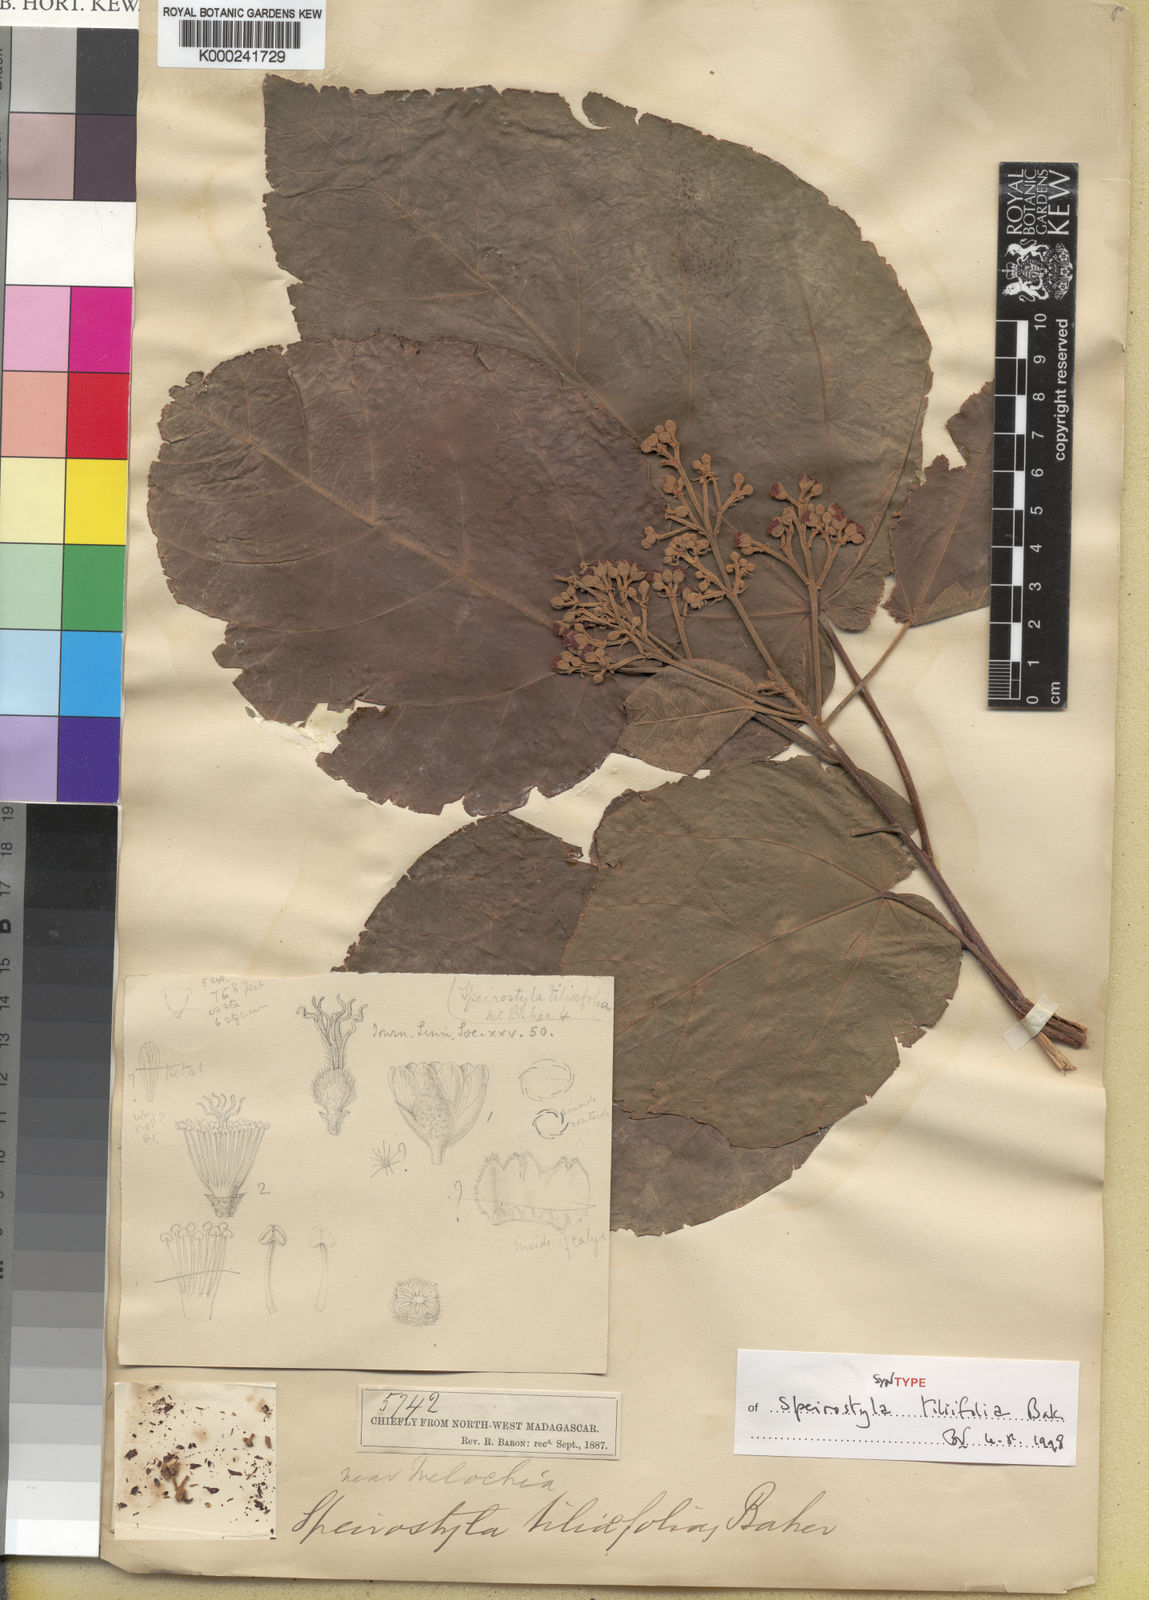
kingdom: Plantae
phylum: Tracheophyta
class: Magnoliopsida
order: Malvales
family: Malvaceae
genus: Christiana
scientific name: Christiana africana
